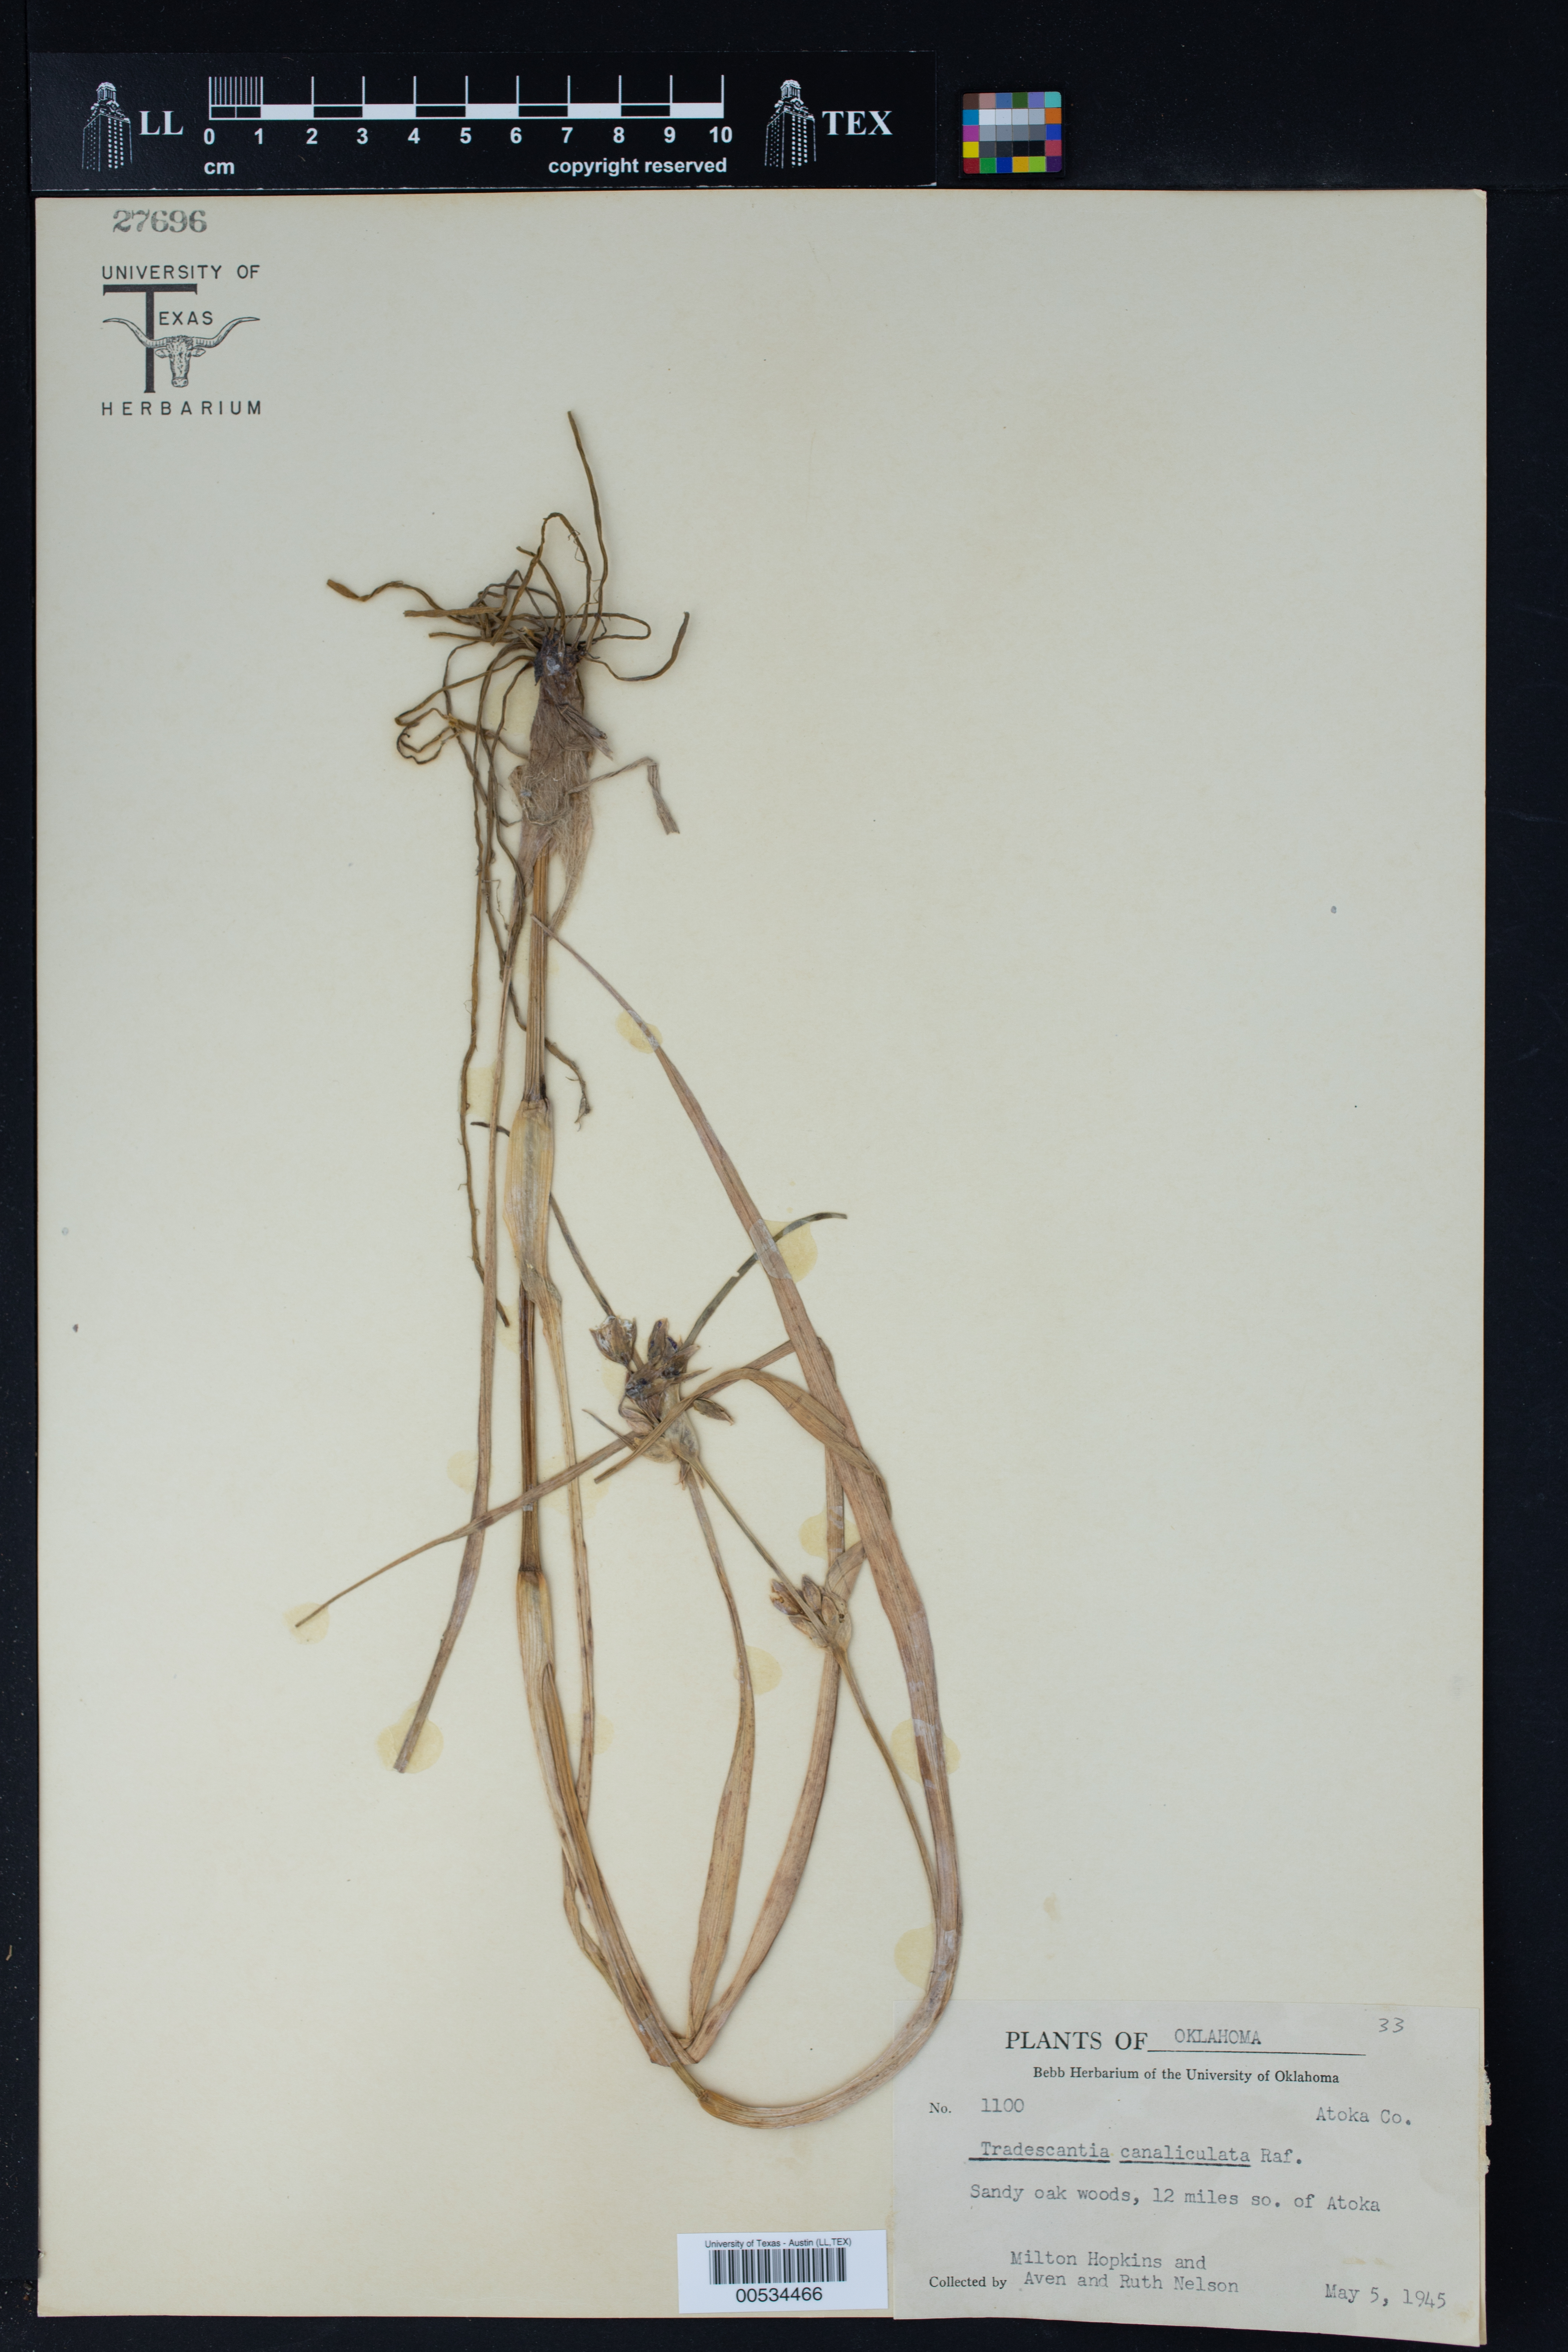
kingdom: Plantae
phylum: Tracheophyta
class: Liliopsida
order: Commelinales
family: Commelinaceae
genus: Tradescantia
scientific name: Tradescantia ohiensis
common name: Ohio spiderwort
